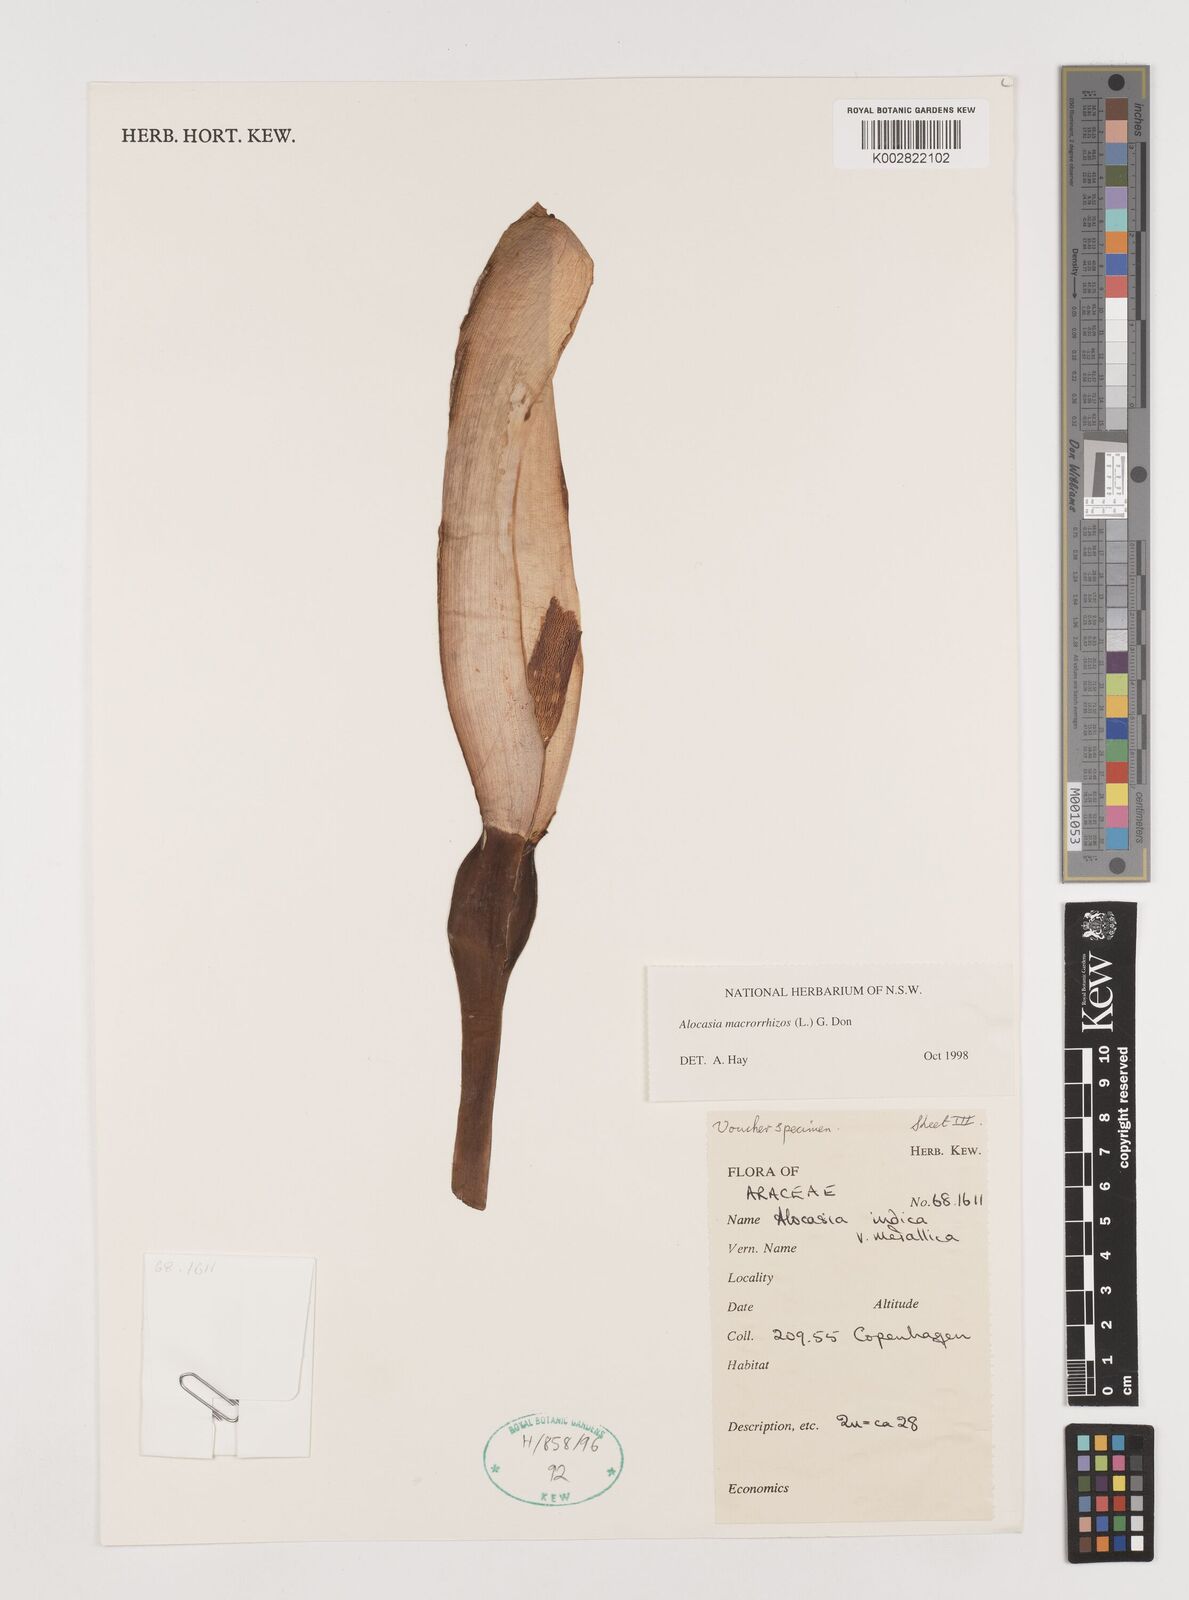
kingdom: Plantae
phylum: Tracheophyta
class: Liliopsida
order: Alismatales
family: Araceae
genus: Alocasia
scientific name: Alocasia macrorrhizos
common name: Giant taro
